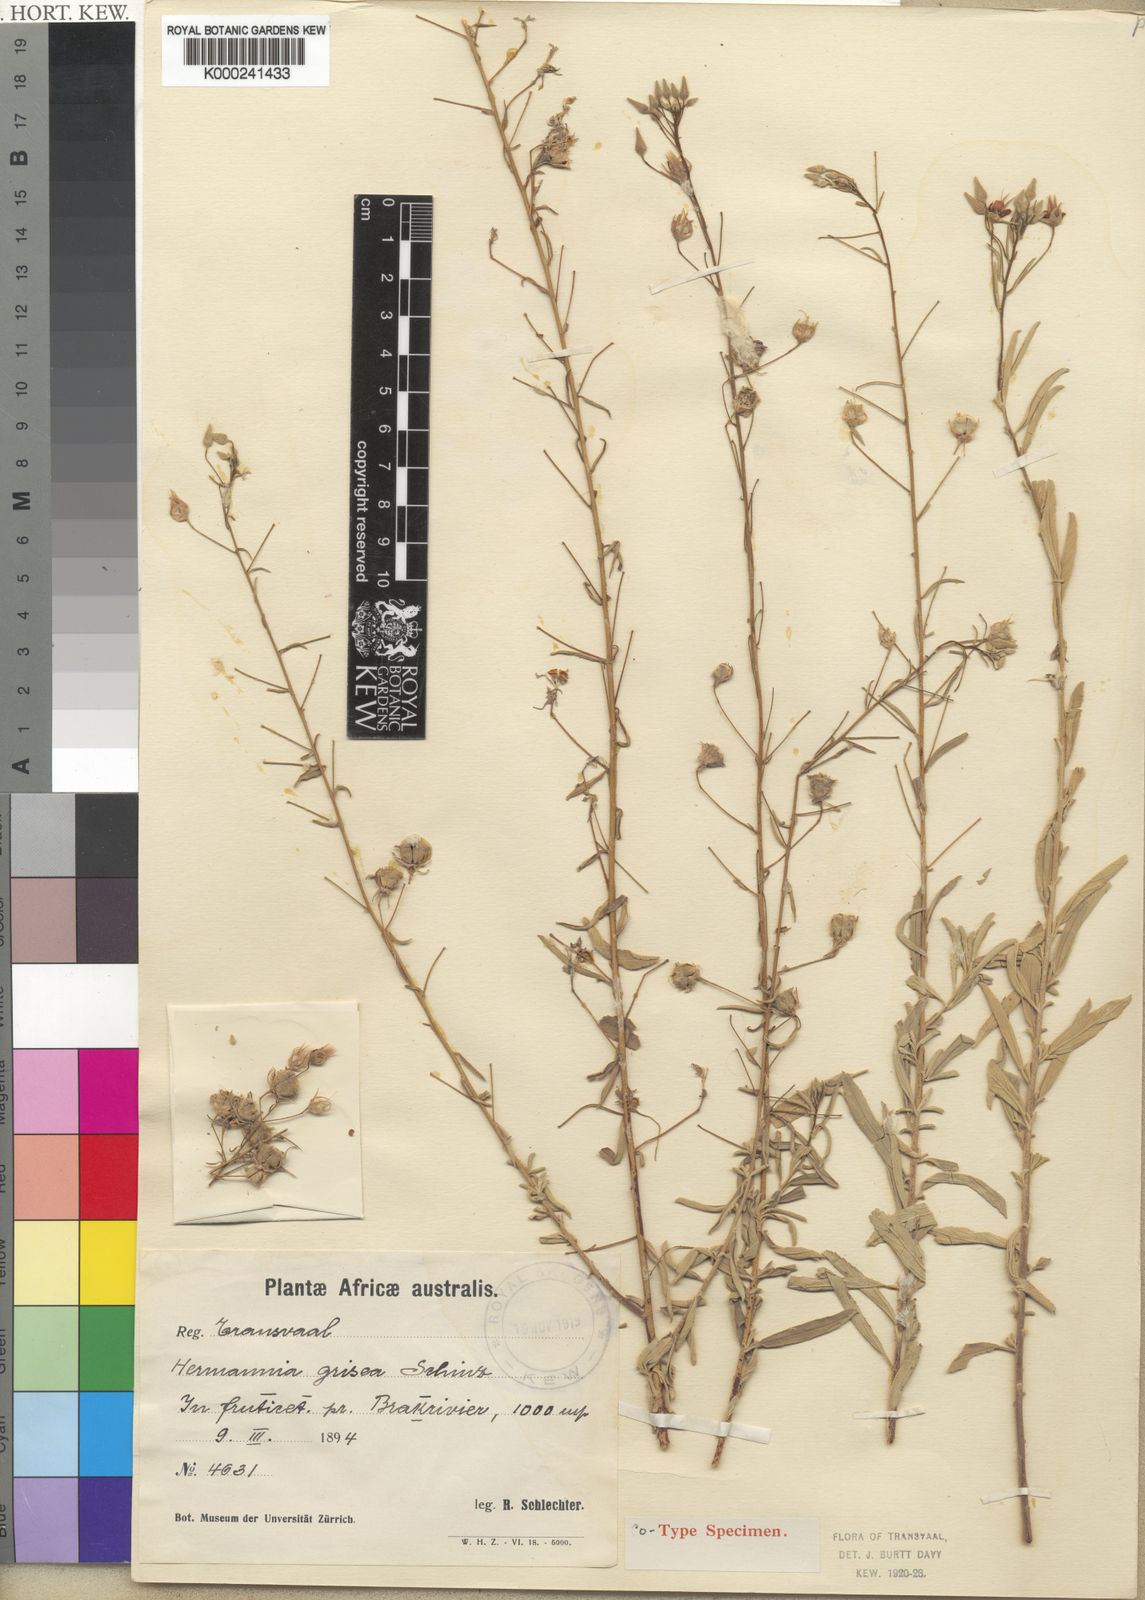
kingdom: Plantae
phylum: Tracheophyta
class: Magnoliopsida
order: Malvales
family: Malvaceae
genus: Hermannia
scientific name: Hermannia grisea
